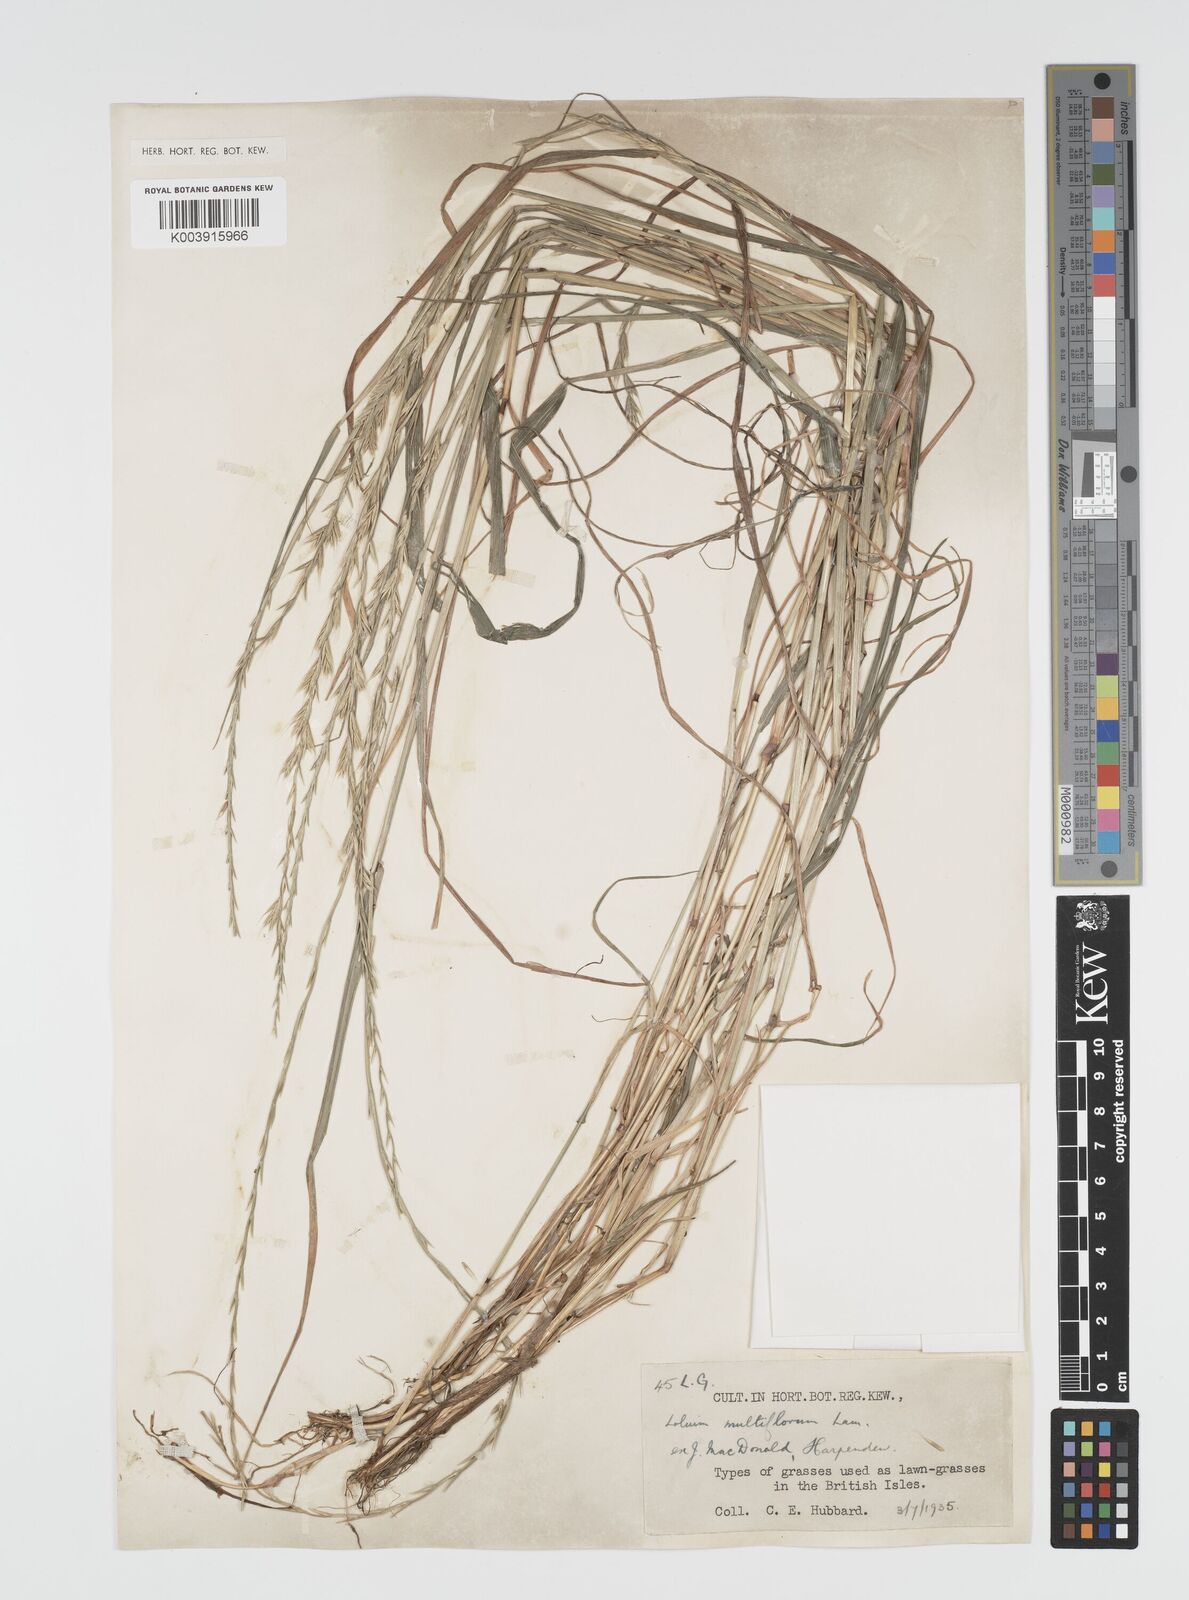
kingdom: Plantae
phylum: Tracheophyta
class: Liliopsida
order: Poales
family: Poaceae
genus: Lolium
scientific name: Lolium multiflorum
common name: Annual ryegrass
